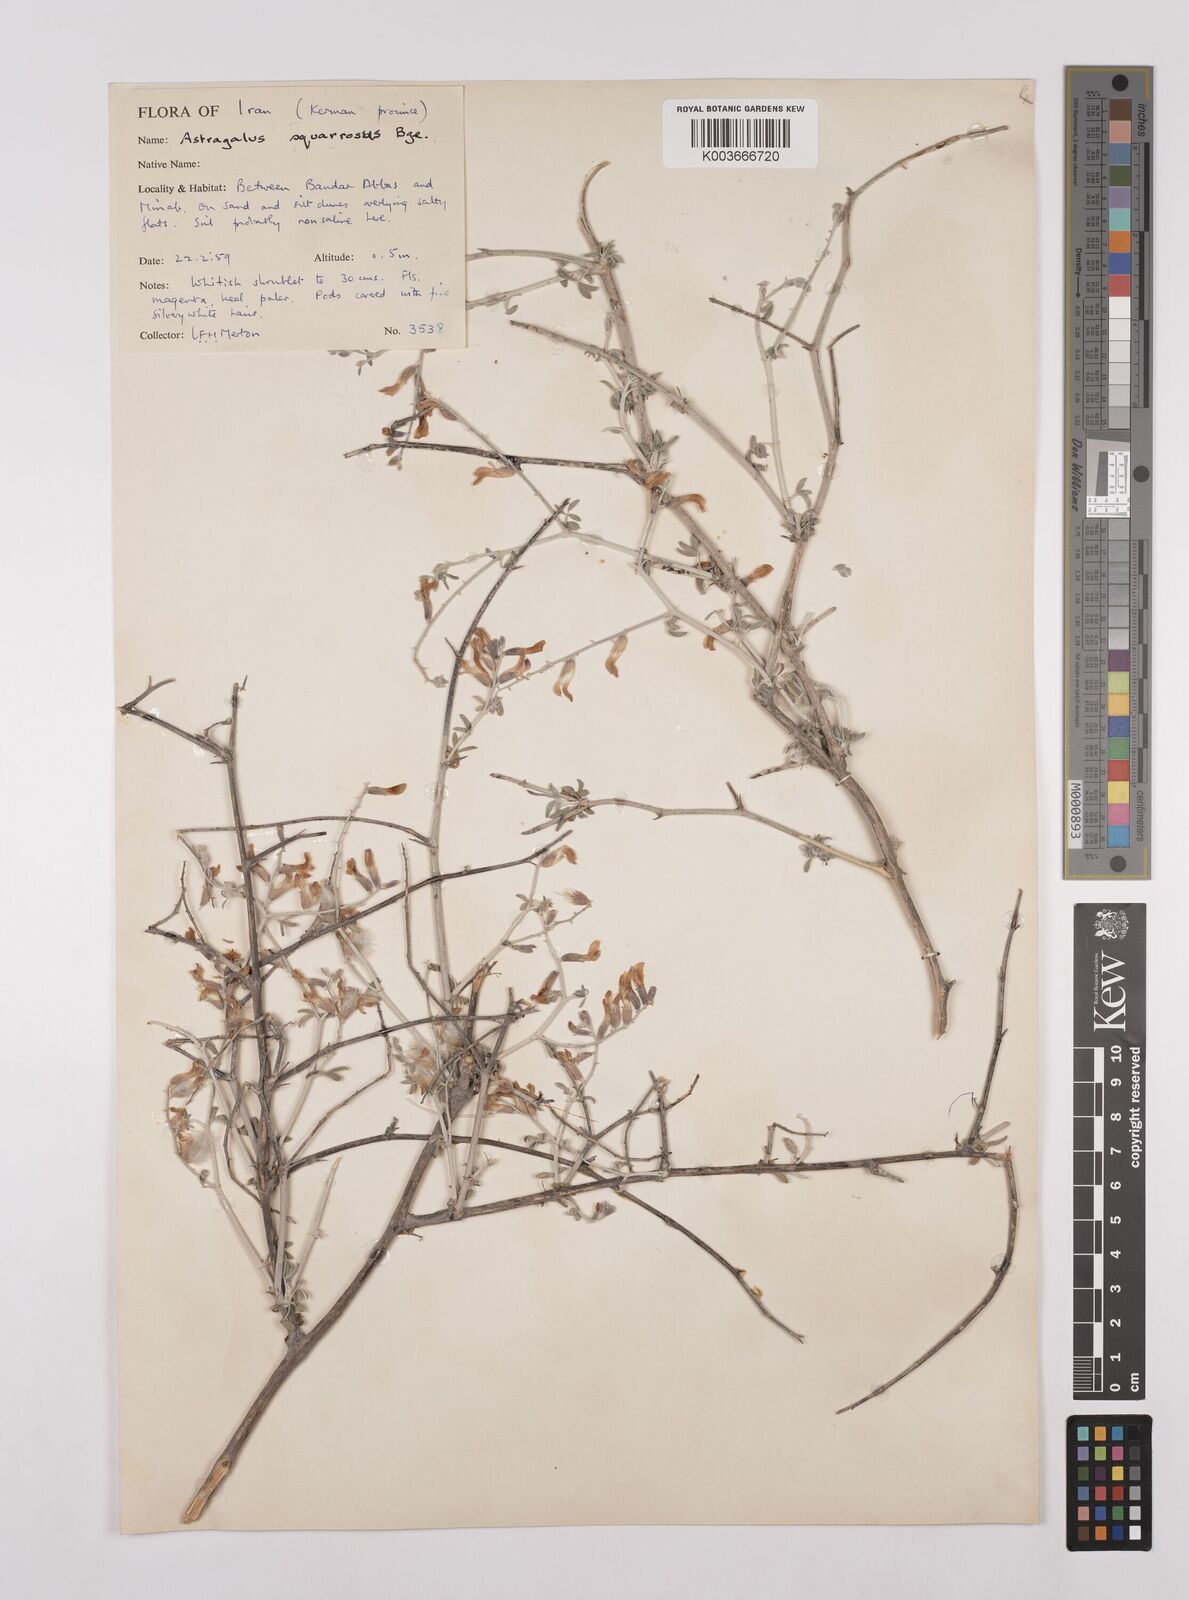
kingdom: Plantae
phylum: Tracheophyta
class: Magnoliopsida
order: Fabales
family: Fabaceae
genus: Astragalus
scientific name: Astragalus squarrosus
